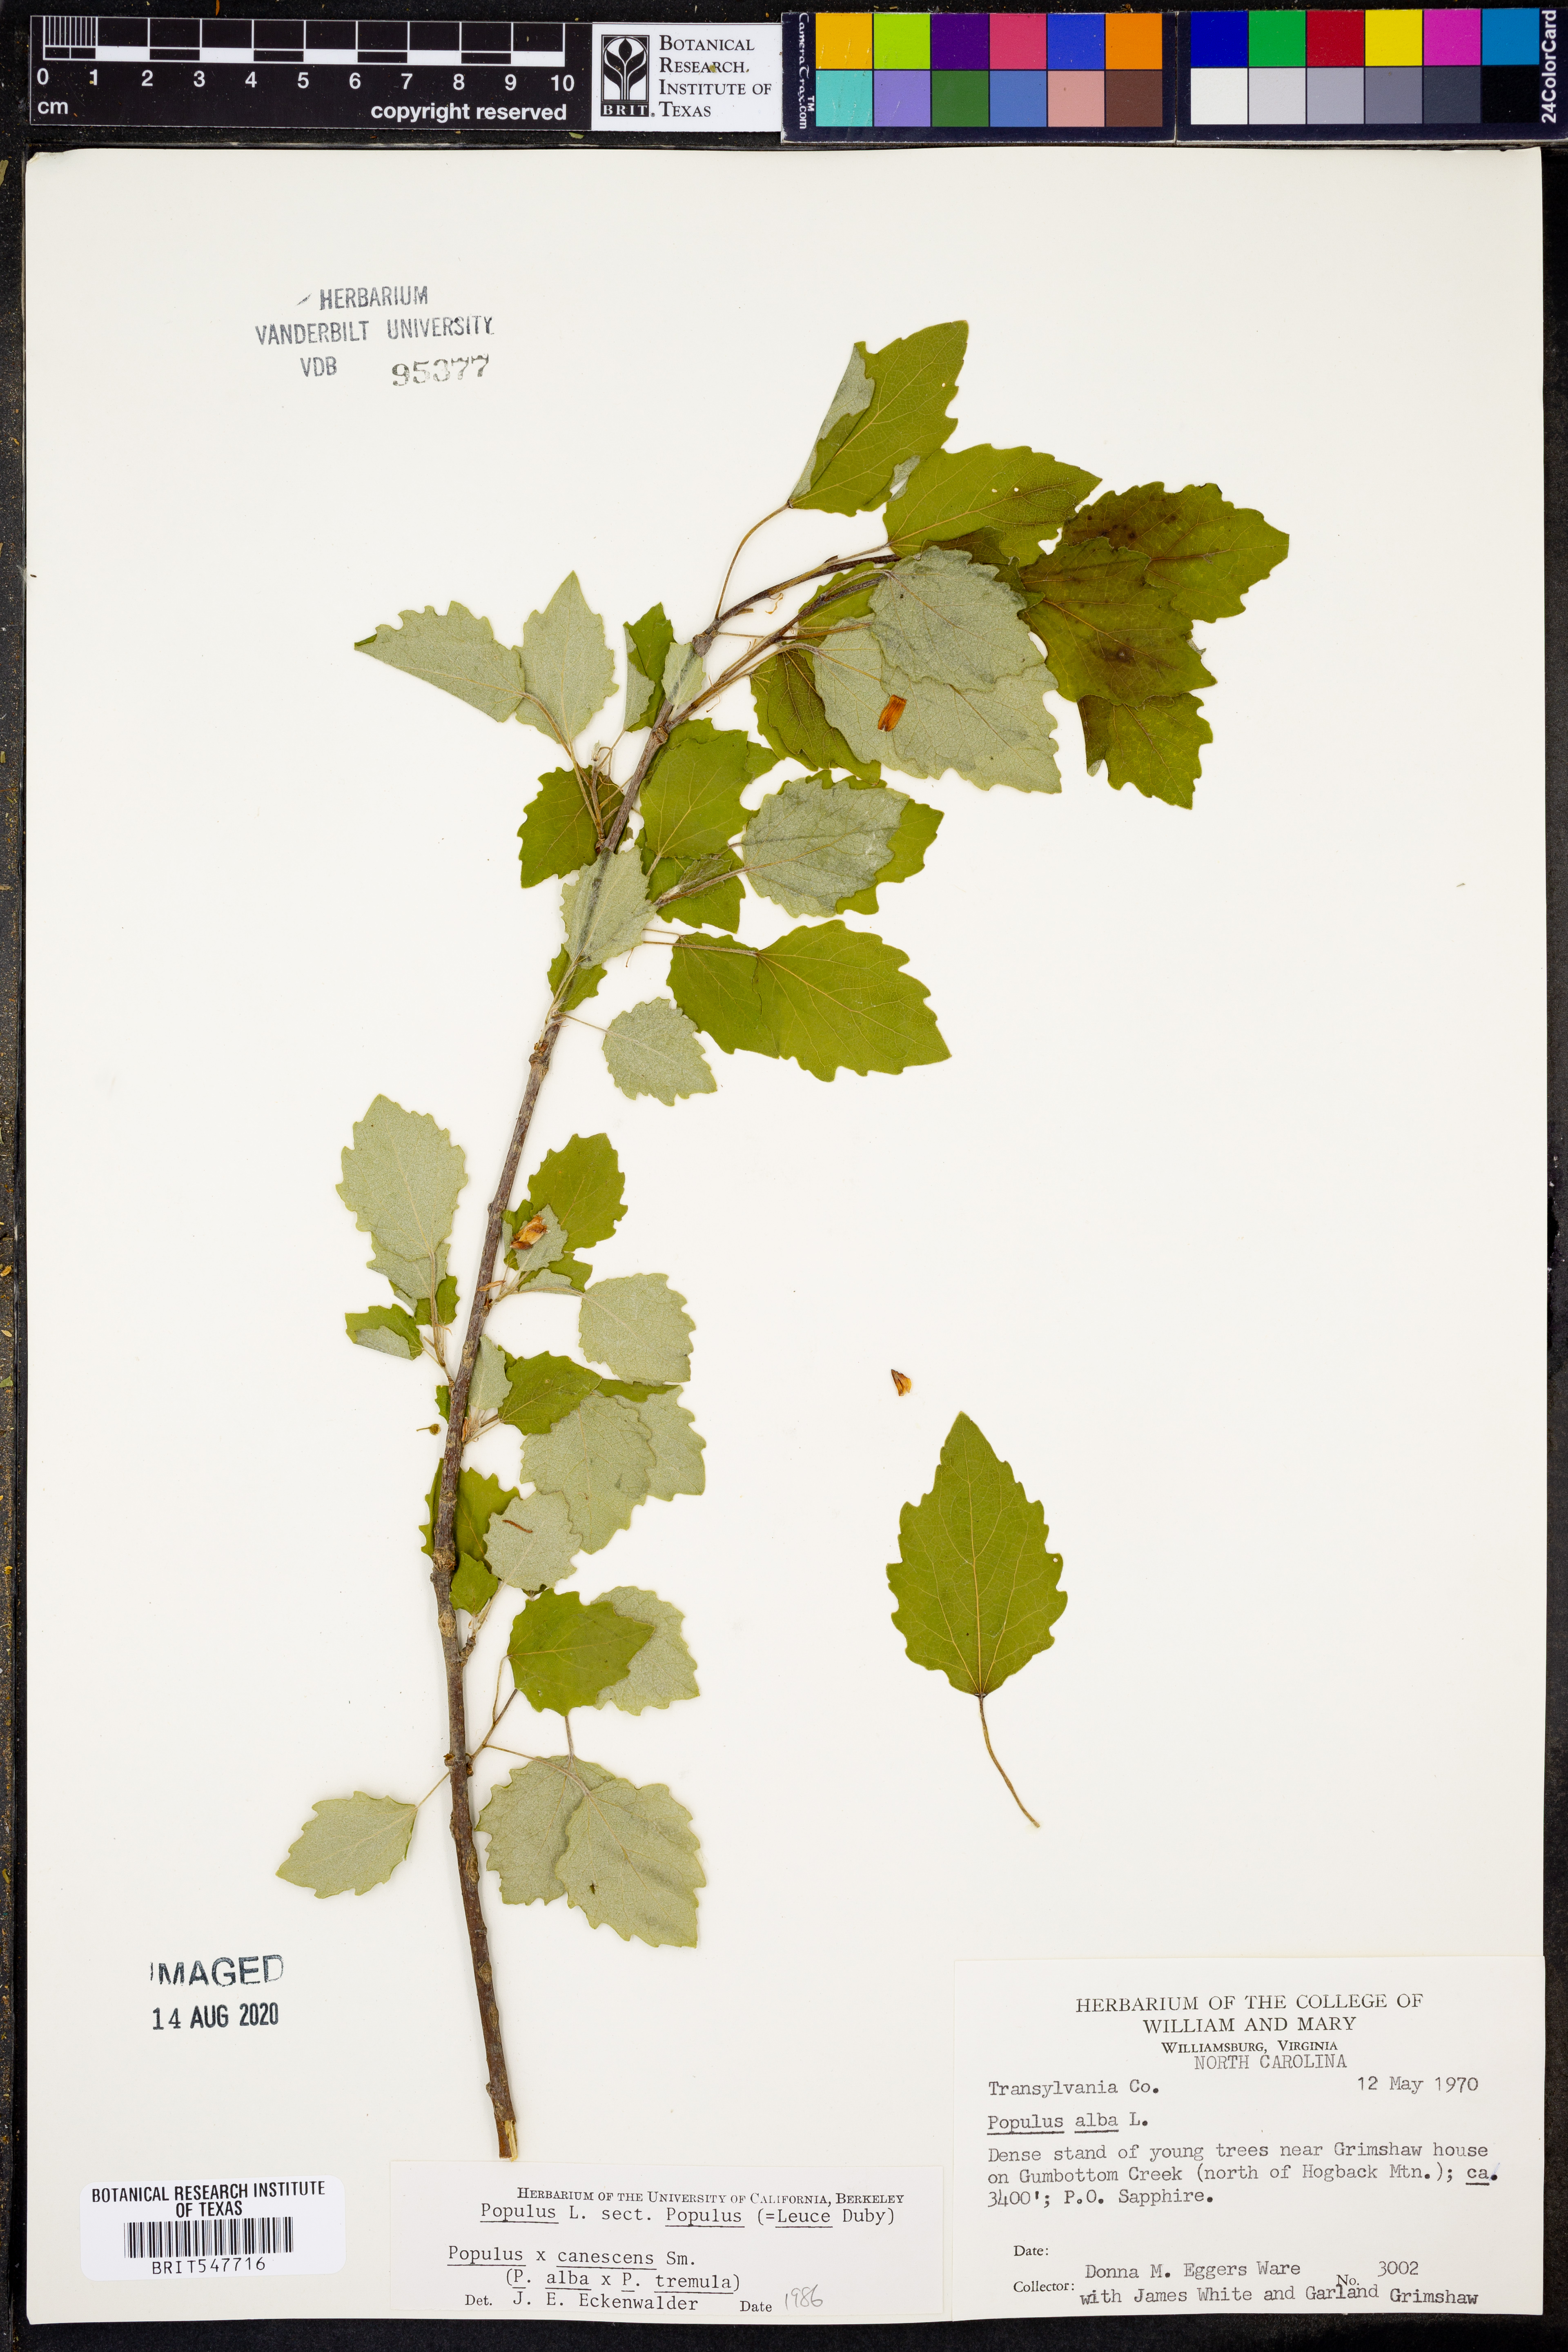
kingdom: Plantae
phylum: Tracheophyta
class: Magnoliopsida
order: Malpighiales
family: Salicaceae
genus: Populus
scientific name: Populus alba
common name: White poplar
